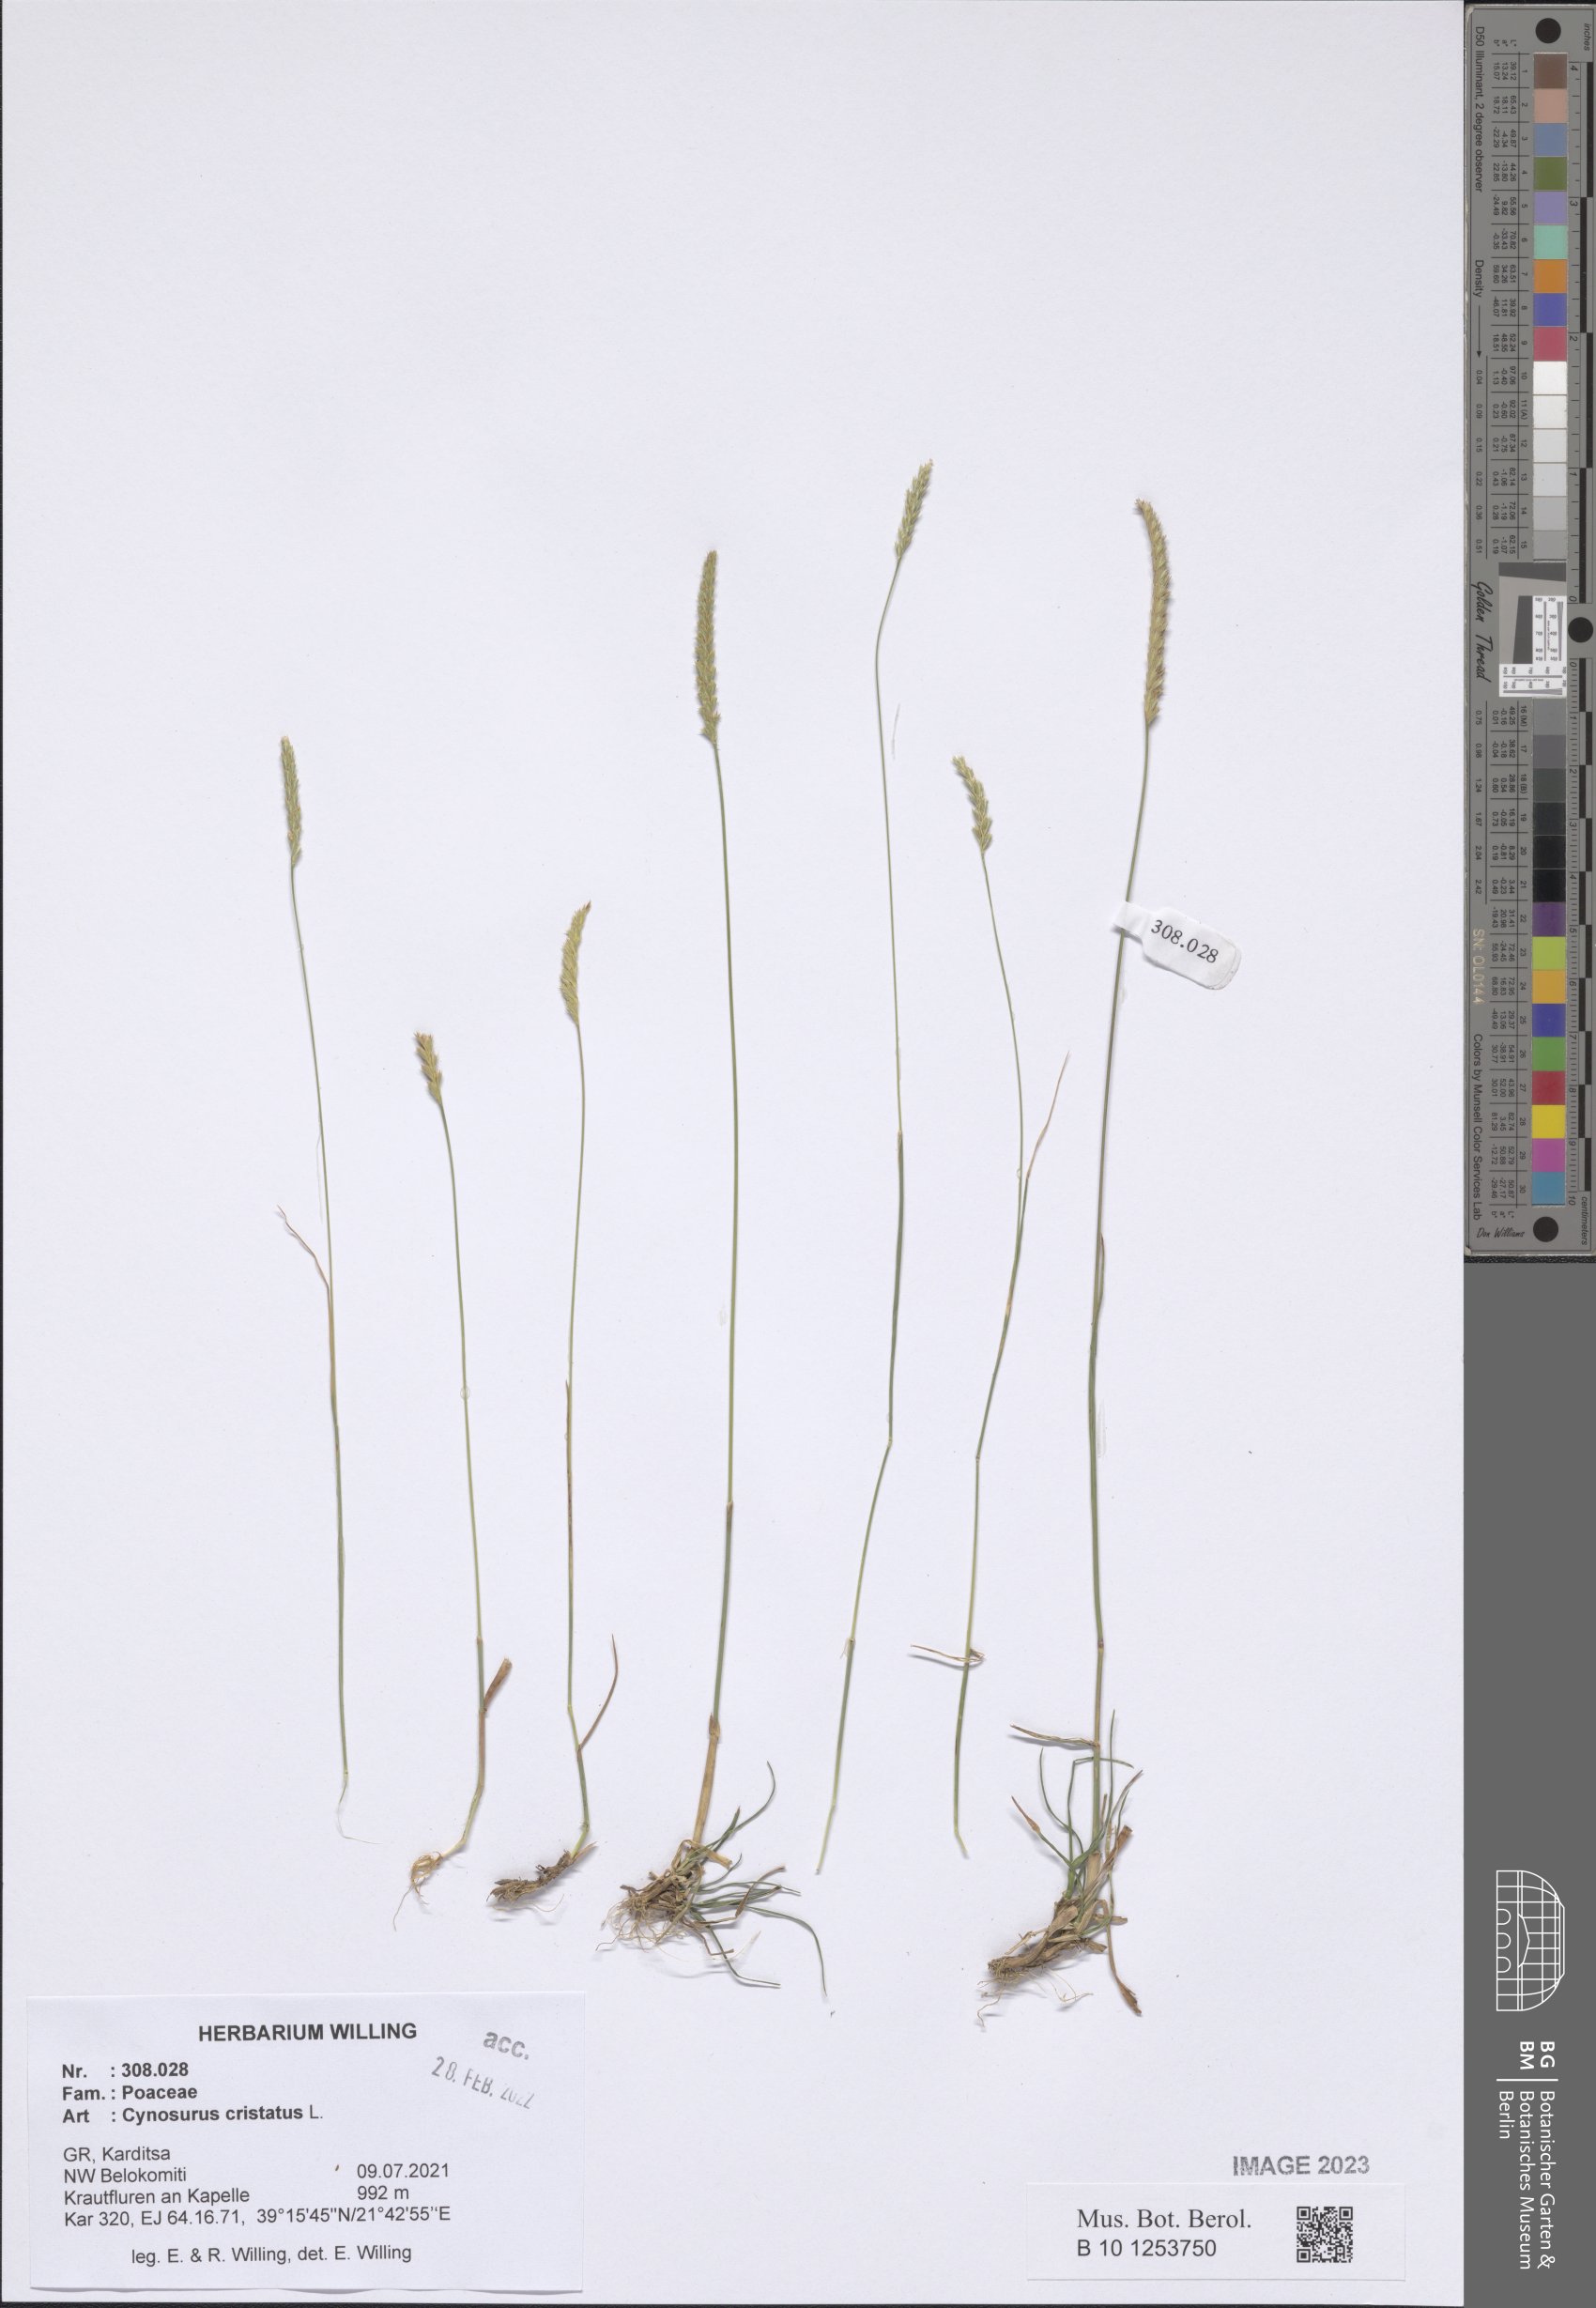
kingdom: Plantae
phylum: Tracheophyta
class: Liliopsida
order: Poales
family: Poaceae
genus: Cynosurus
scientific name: Cynosurus cristatus
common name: Crested dog's-tail
